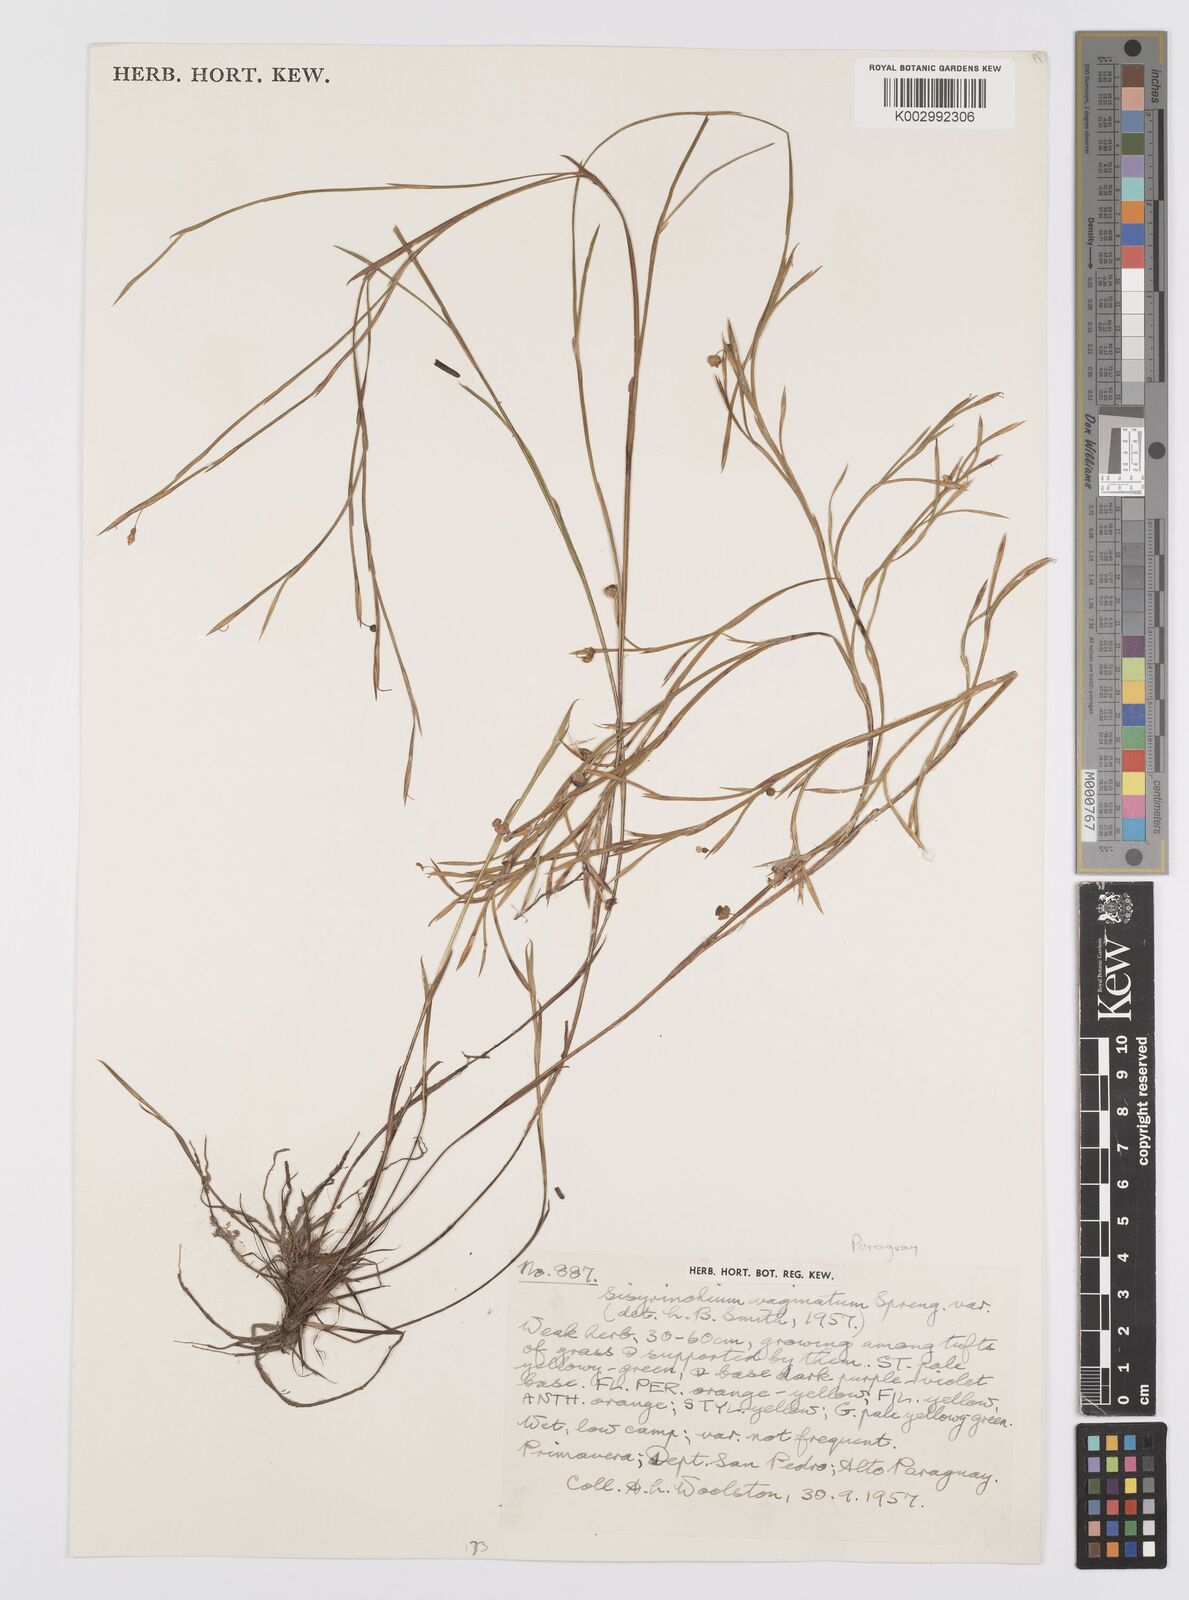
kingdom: Plantae
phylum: Tracheophyta
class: Liliopsida
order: Asparagales
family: Iridaceae
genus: Sisyrinchium
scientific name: Sisyrinchium vaginatum
